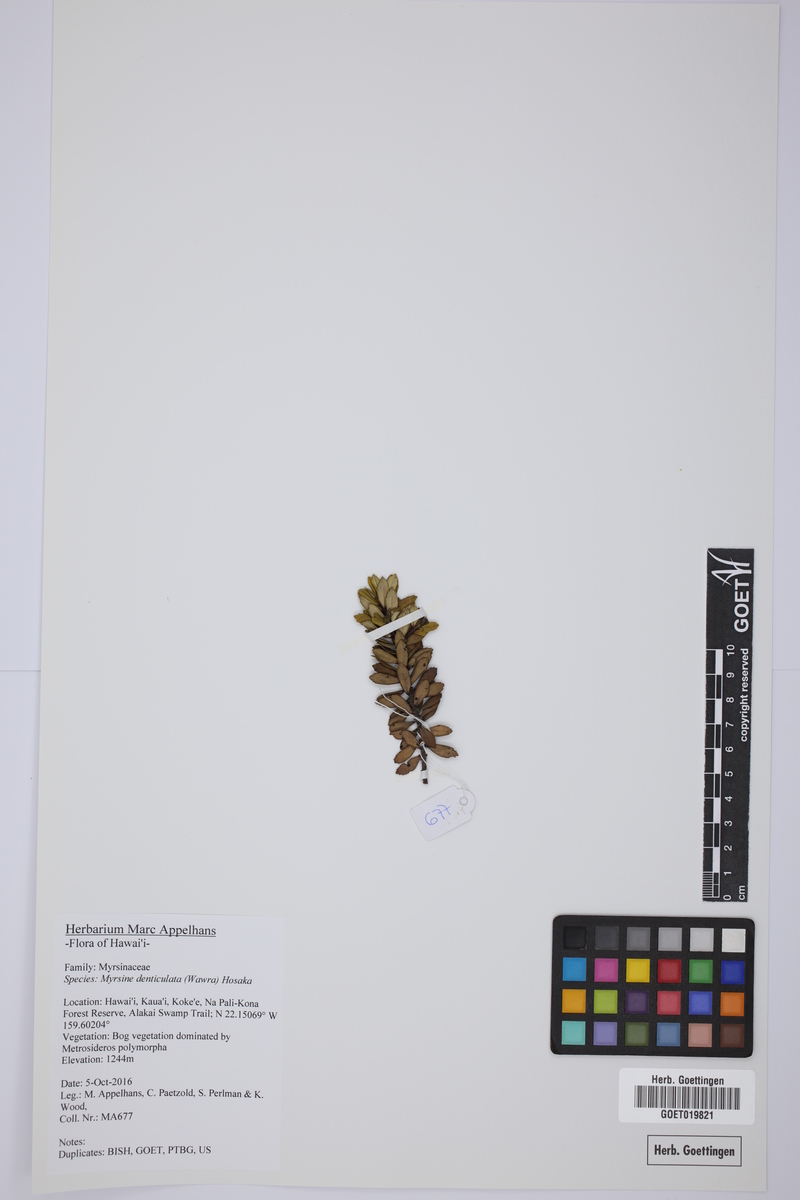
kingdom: Plantae
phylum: Tracheophyta
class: Magnoliopsida
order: Ericales
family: Primulaceae
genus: Myrsine
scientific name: Myrsine denticulata
